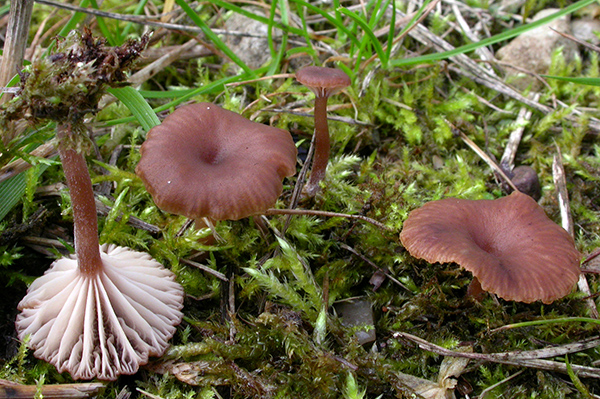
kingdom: Fungi
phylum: Basidiomycota
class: Agaricomycetes
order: Agaricales
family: Tricholomataceae
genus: Omphalina
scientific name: Omphalina pyxidata
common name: rødbrun navlehat
